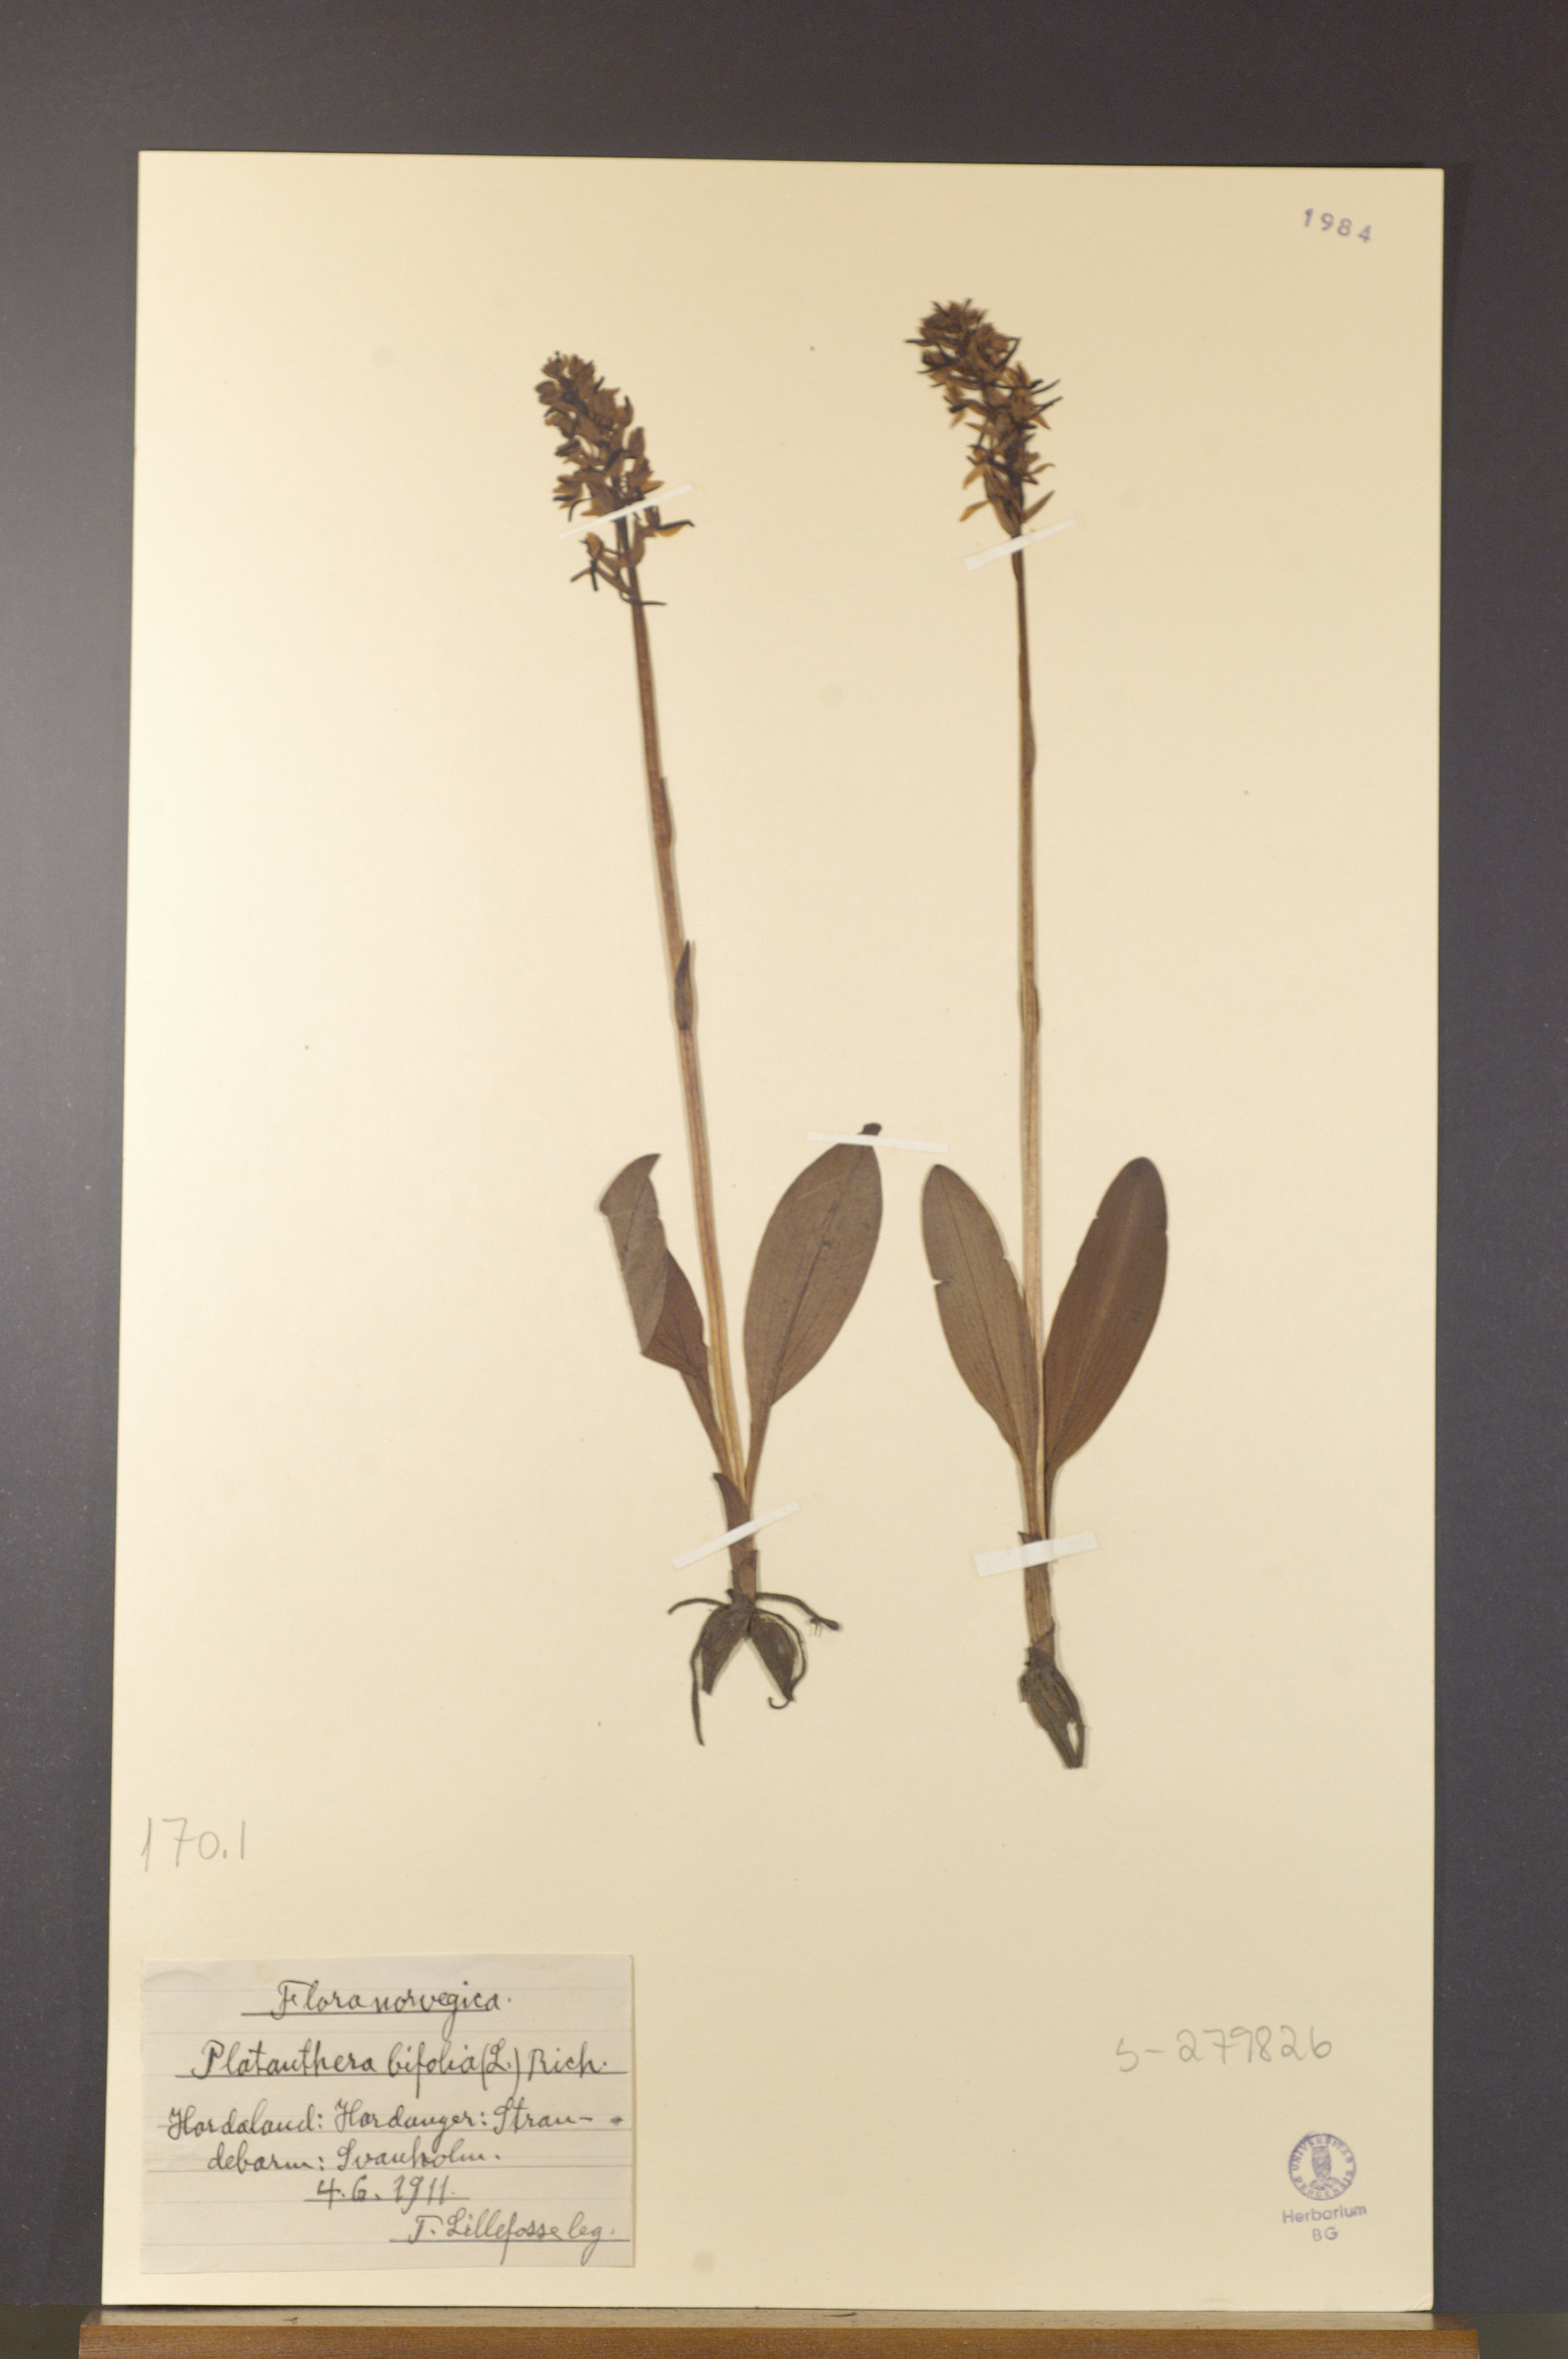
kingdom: Plantae
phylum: Tracheophyta
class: Liliopsida
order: Asparagales
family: Orchidaceae
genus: Platanthera
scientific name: Platanthera bifolia
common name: Lesser butterfly-orchid
